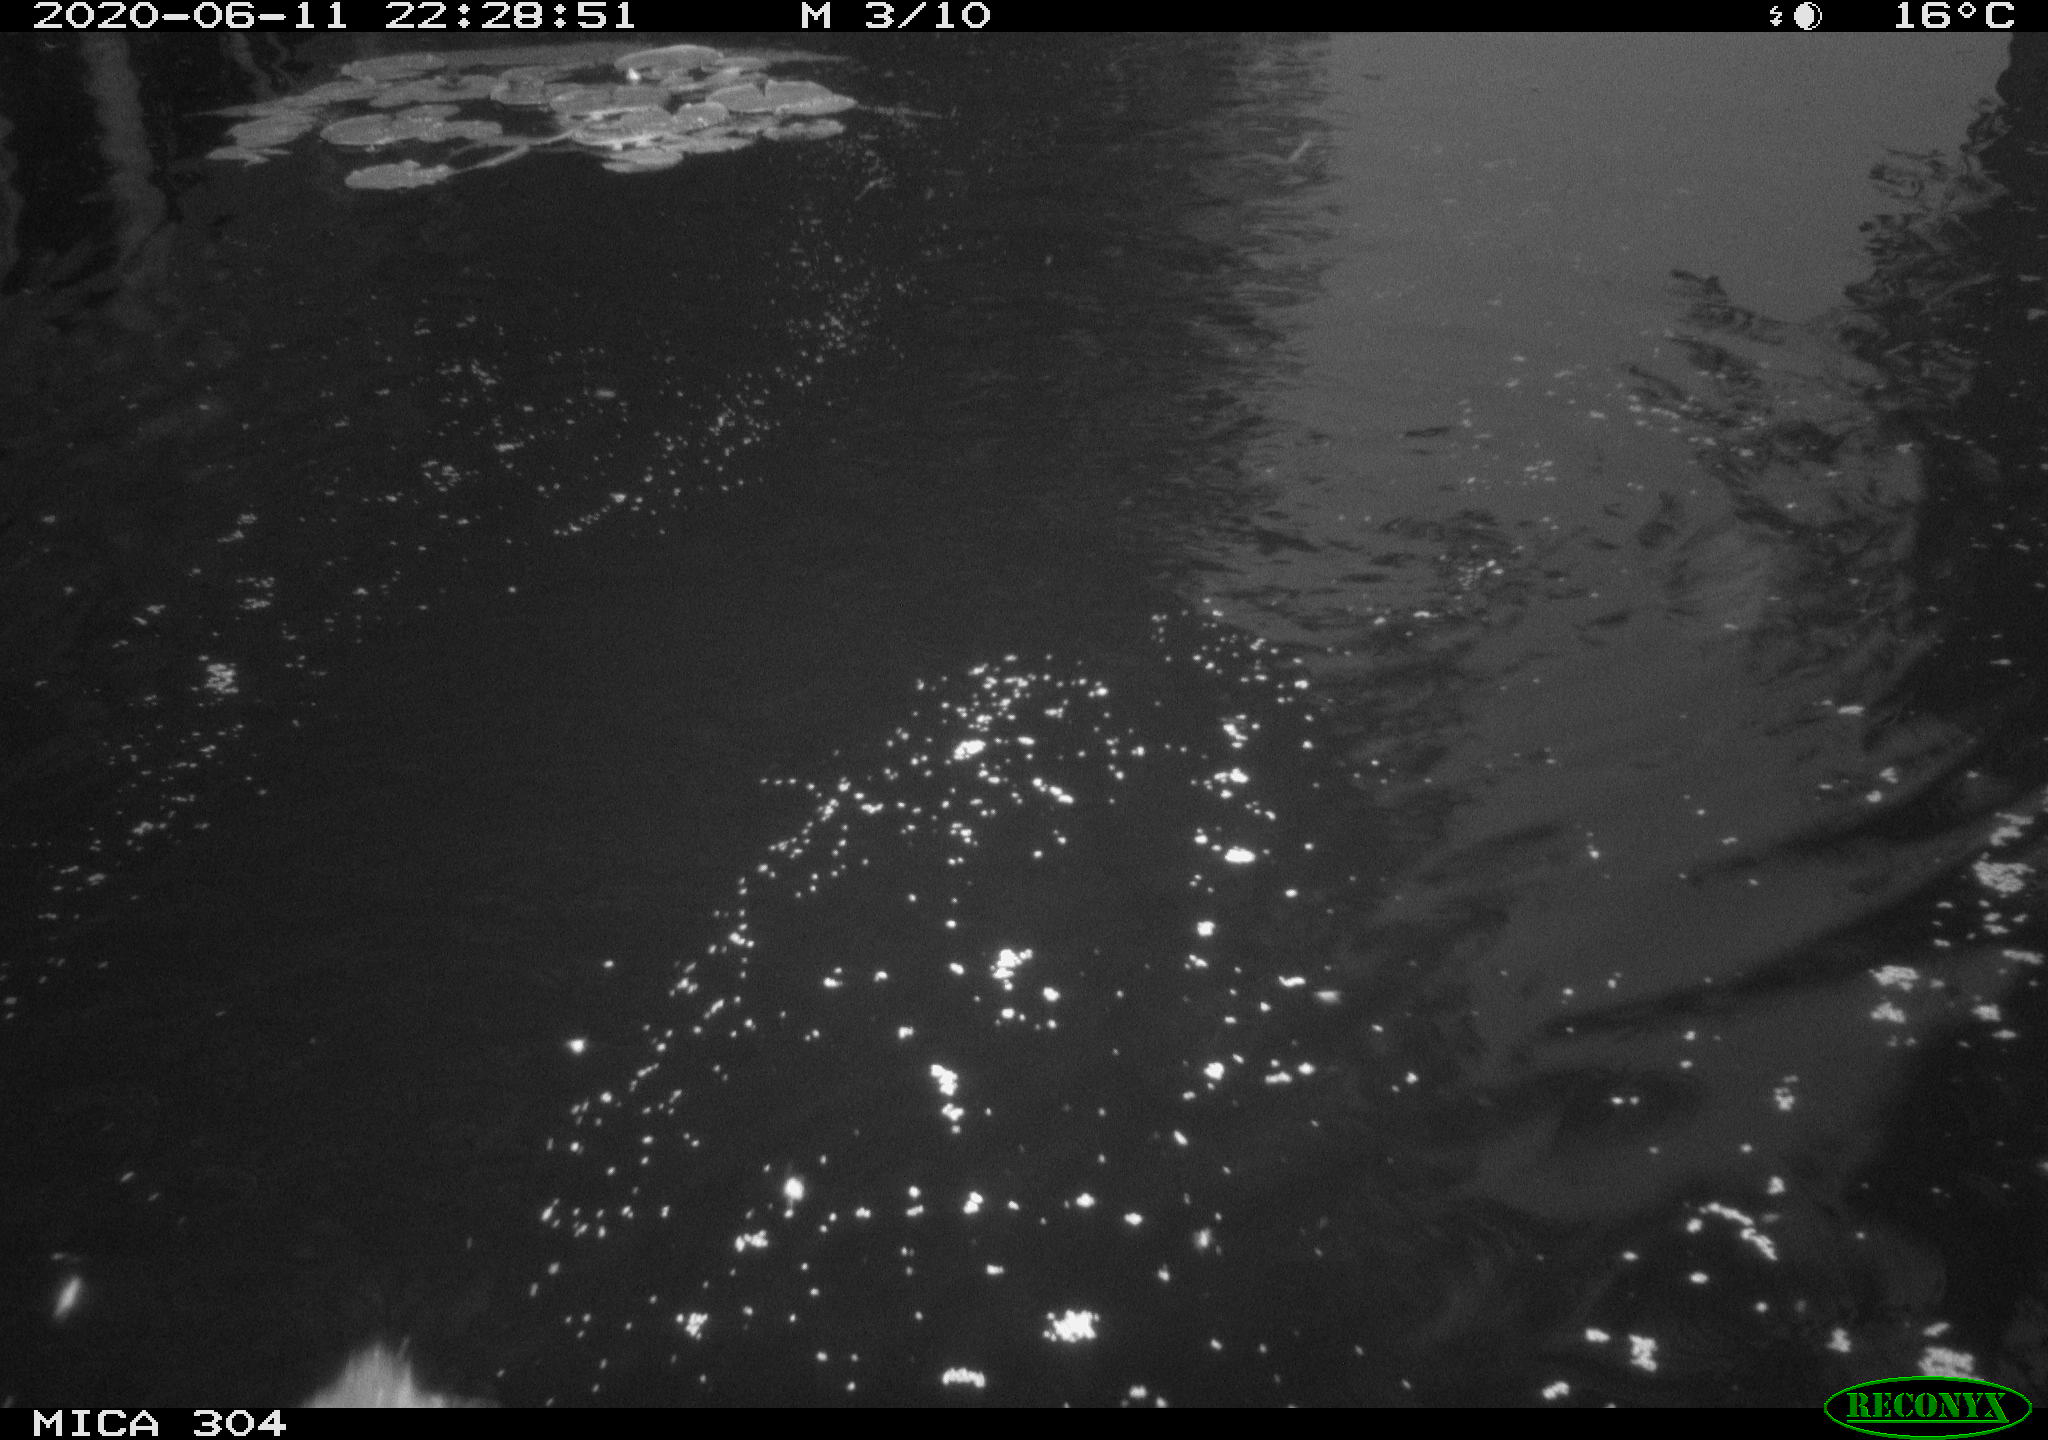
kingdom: Animalia
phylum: Chordata
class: Aves
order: Anseriformes
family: Anatidae
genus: Anas
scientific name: Anas platyrhynchos
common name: Mallard
